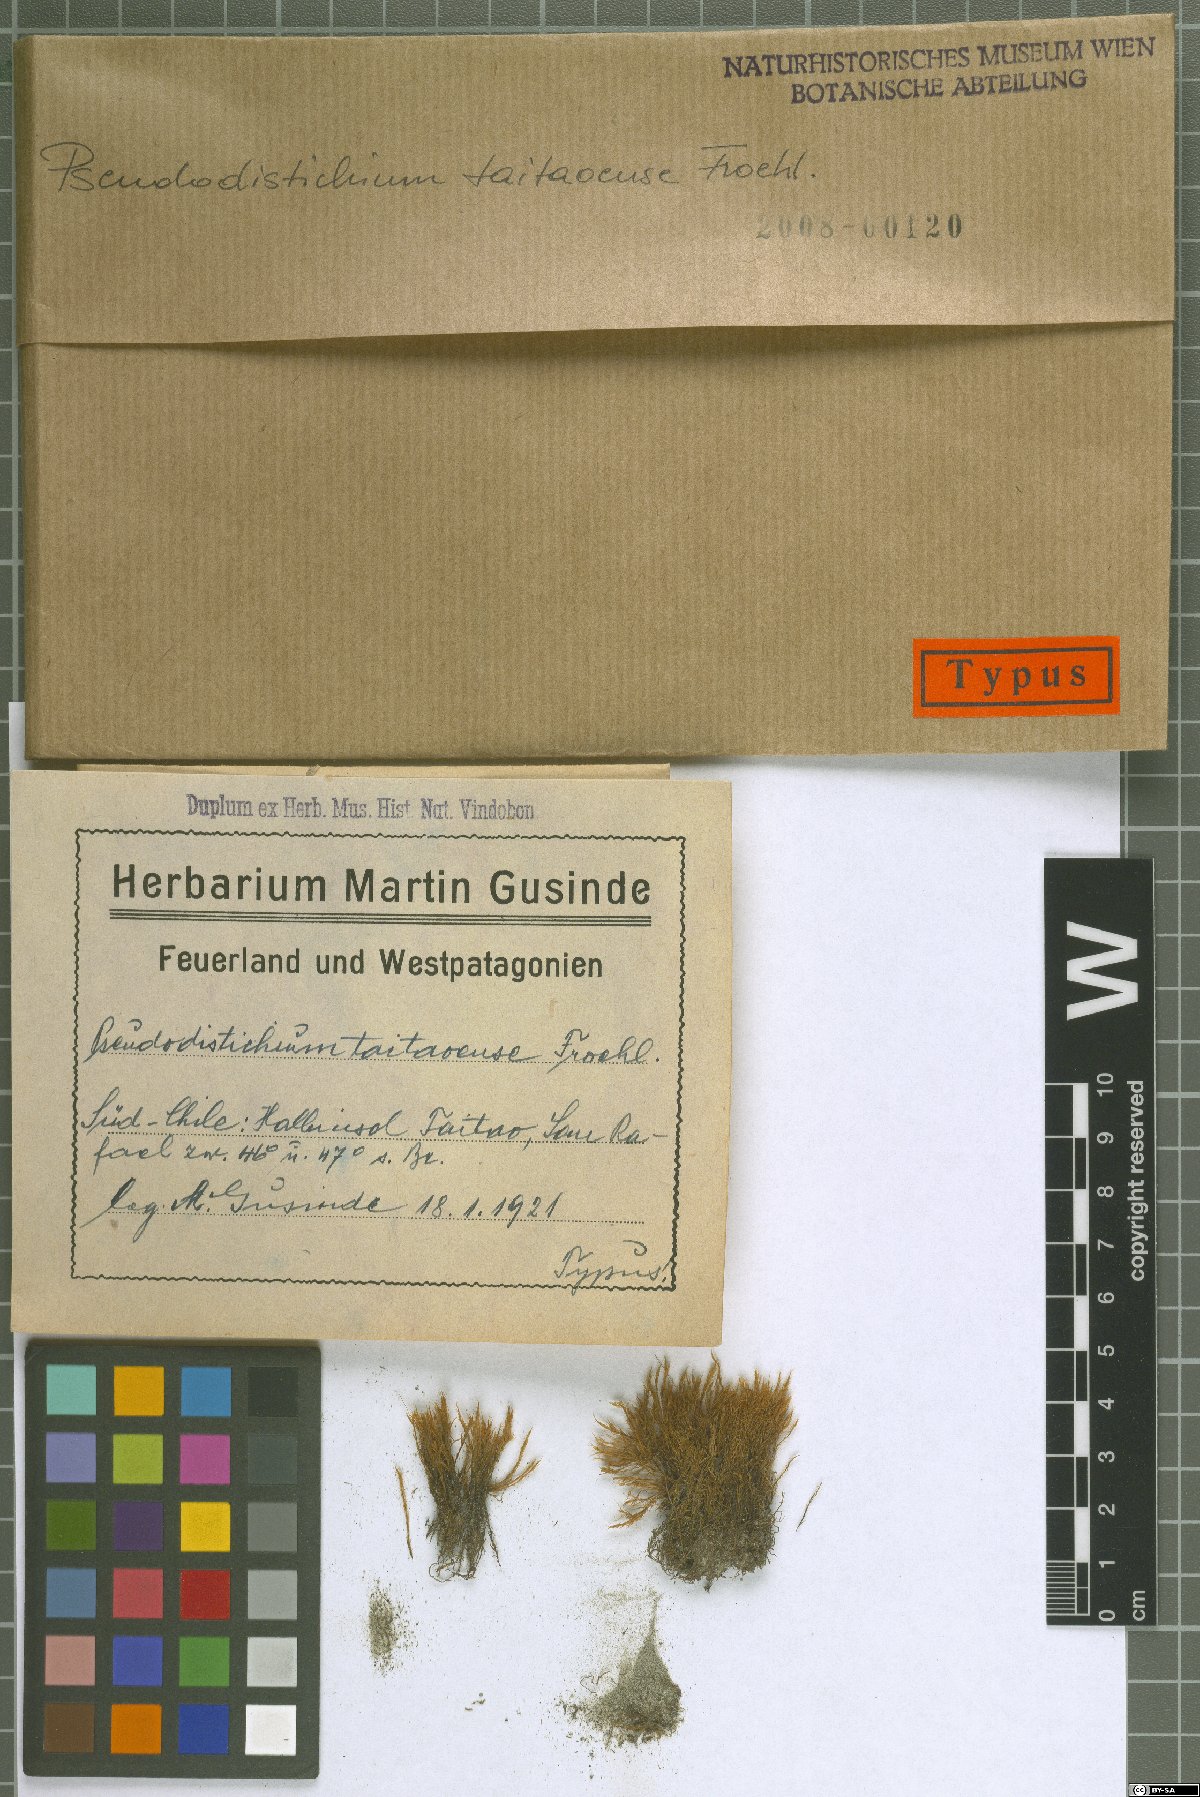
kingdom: Plantae
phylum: Bryophyta
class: Bryopsida
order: Dicranales
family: Ditrichaceae
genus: Ditrichum
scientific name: Ditrichum conicum
